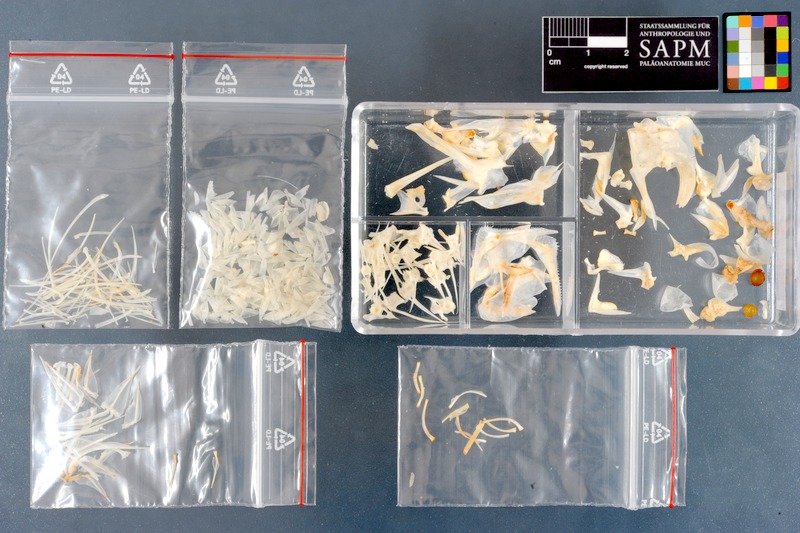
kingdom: Animalia
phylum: Chordata
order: Perciformes
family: Nemipteridae
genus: Scolopsis
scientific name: Scolopsis
